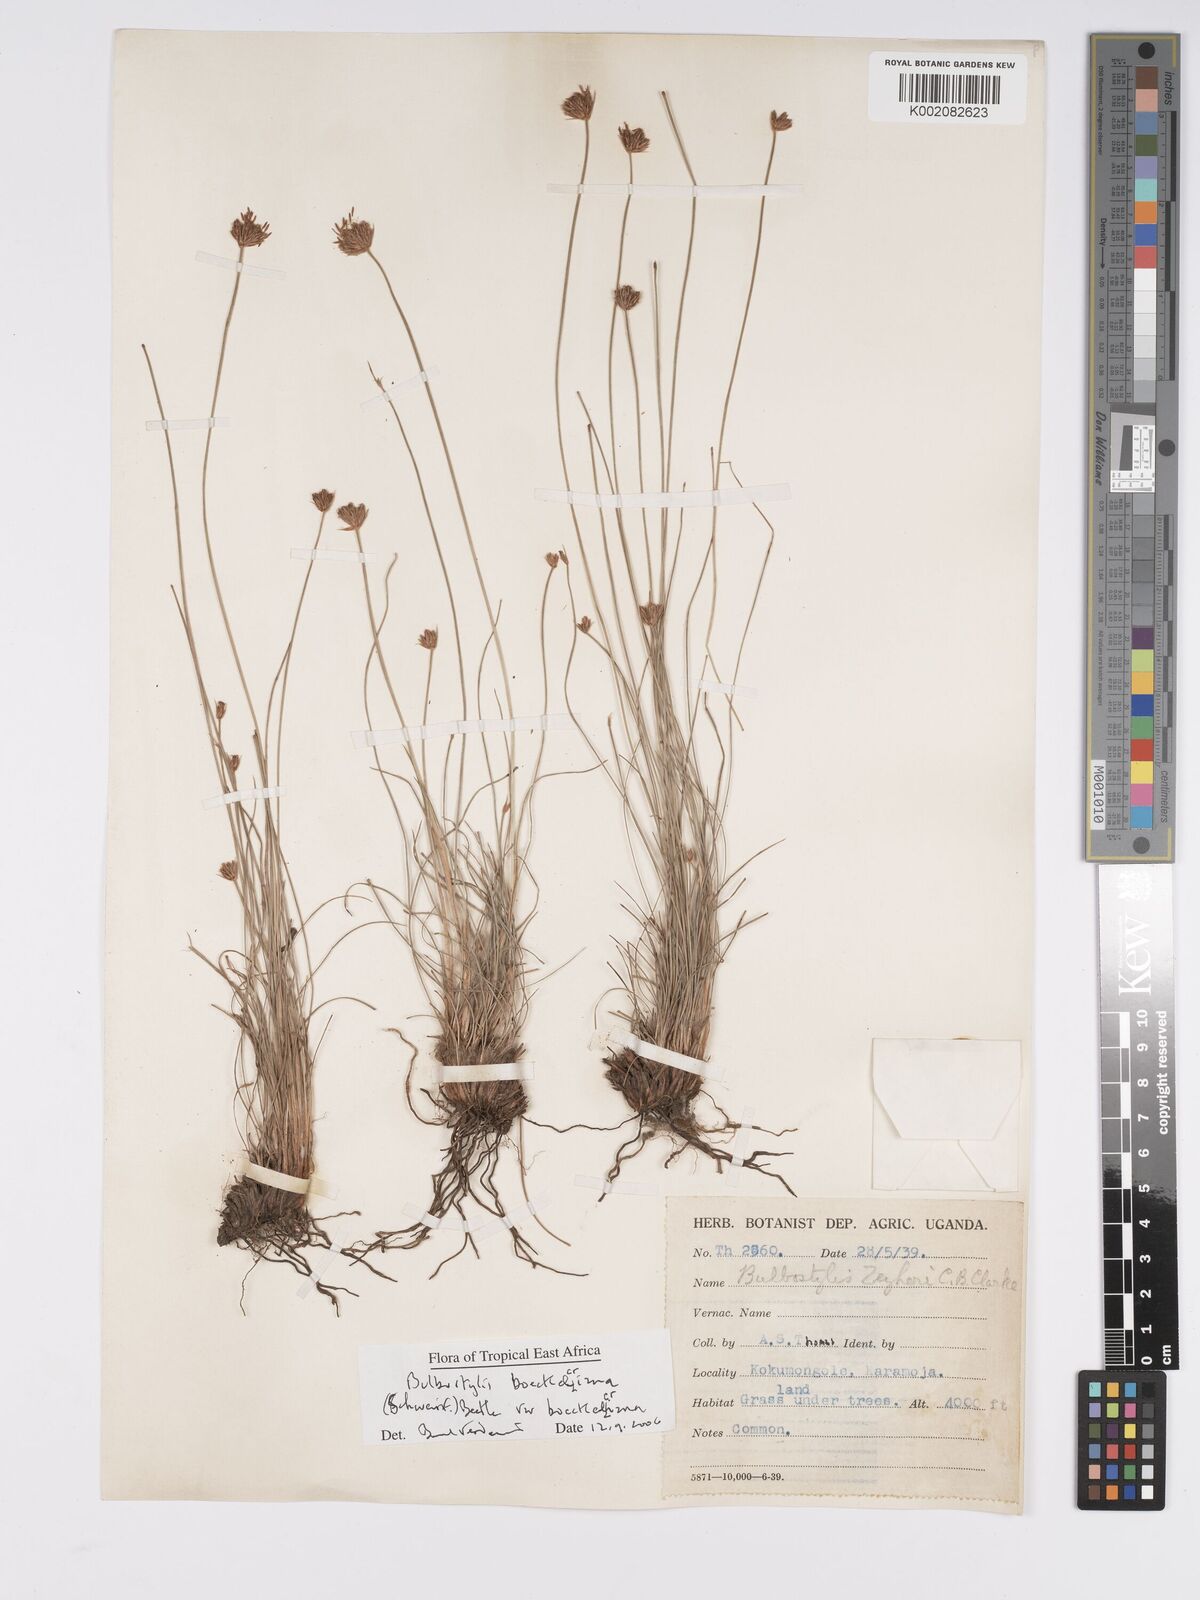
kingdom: Plantae
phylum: Tracheophyta
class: Liliopsida
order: Poales
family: Cyperaceae
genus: Bulbostylis
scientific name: Bulbostylis boeckeleriana
